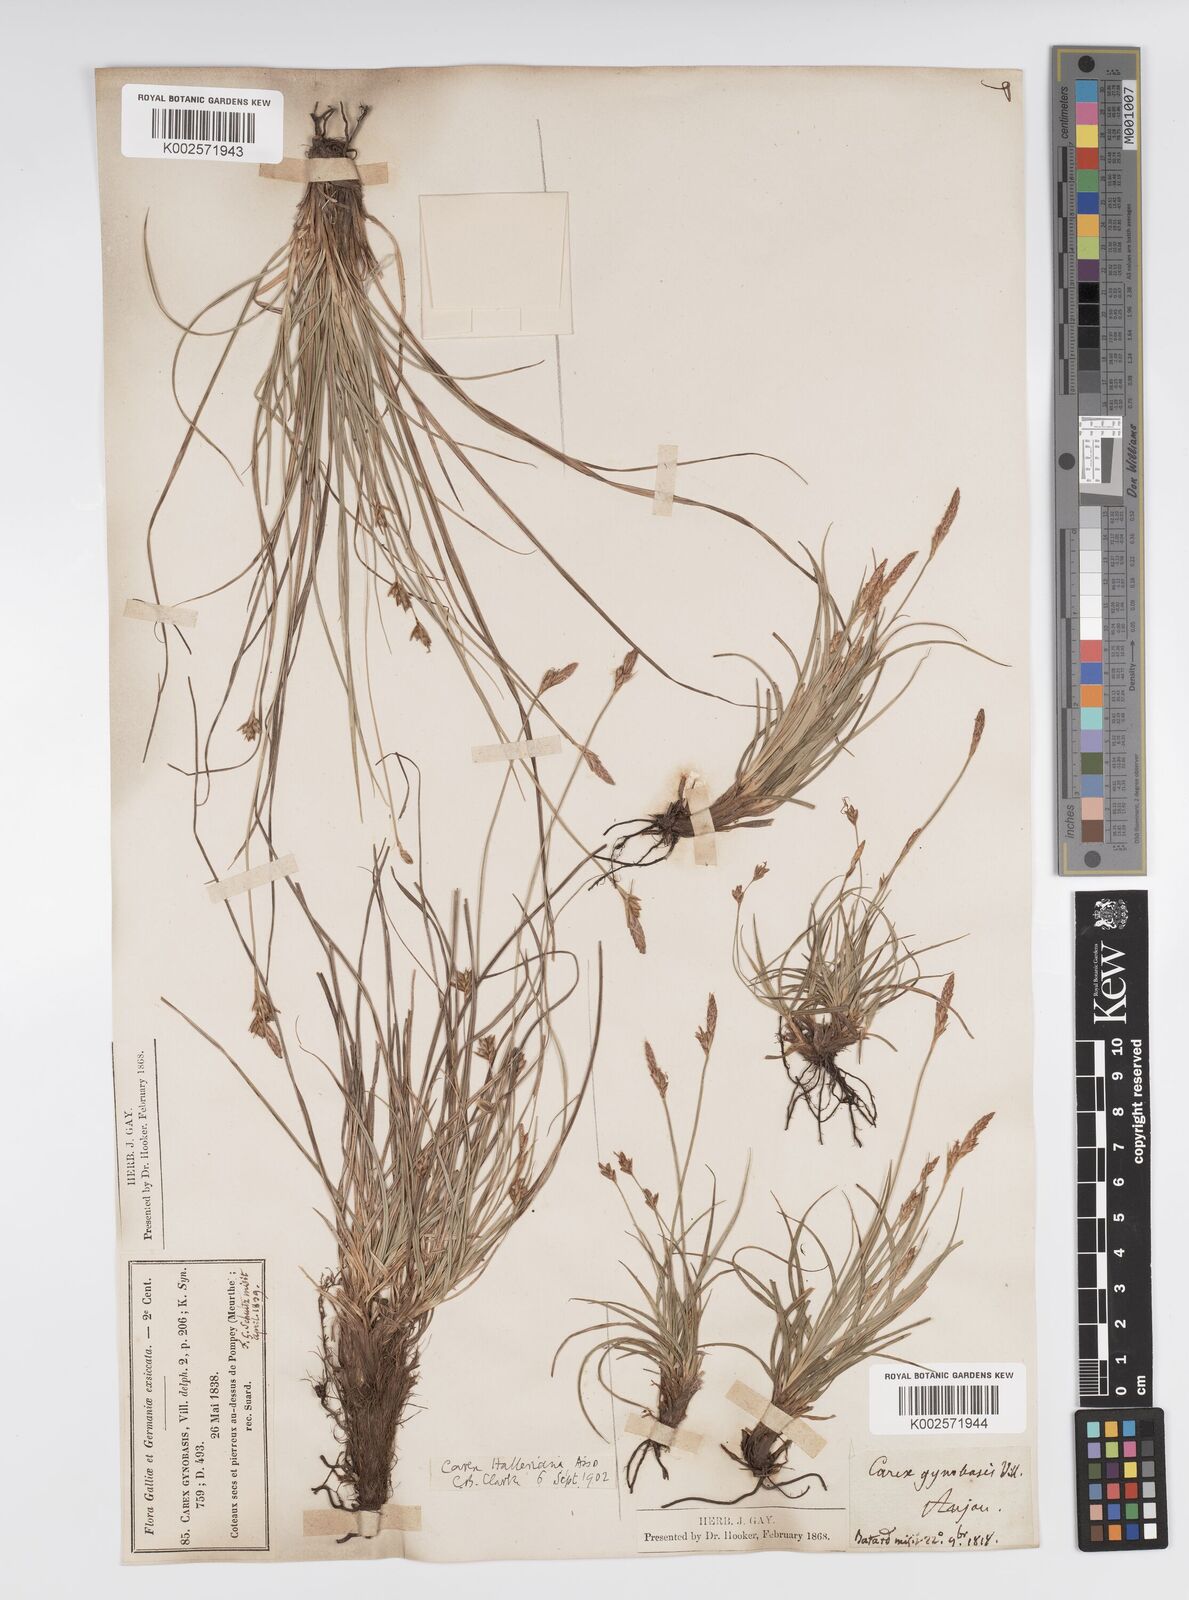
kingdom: Plantae
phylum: Tracheophyta
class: Liliopsida
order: Poales
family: Cyperaceae
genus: Carex
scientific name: Carex halleriana
